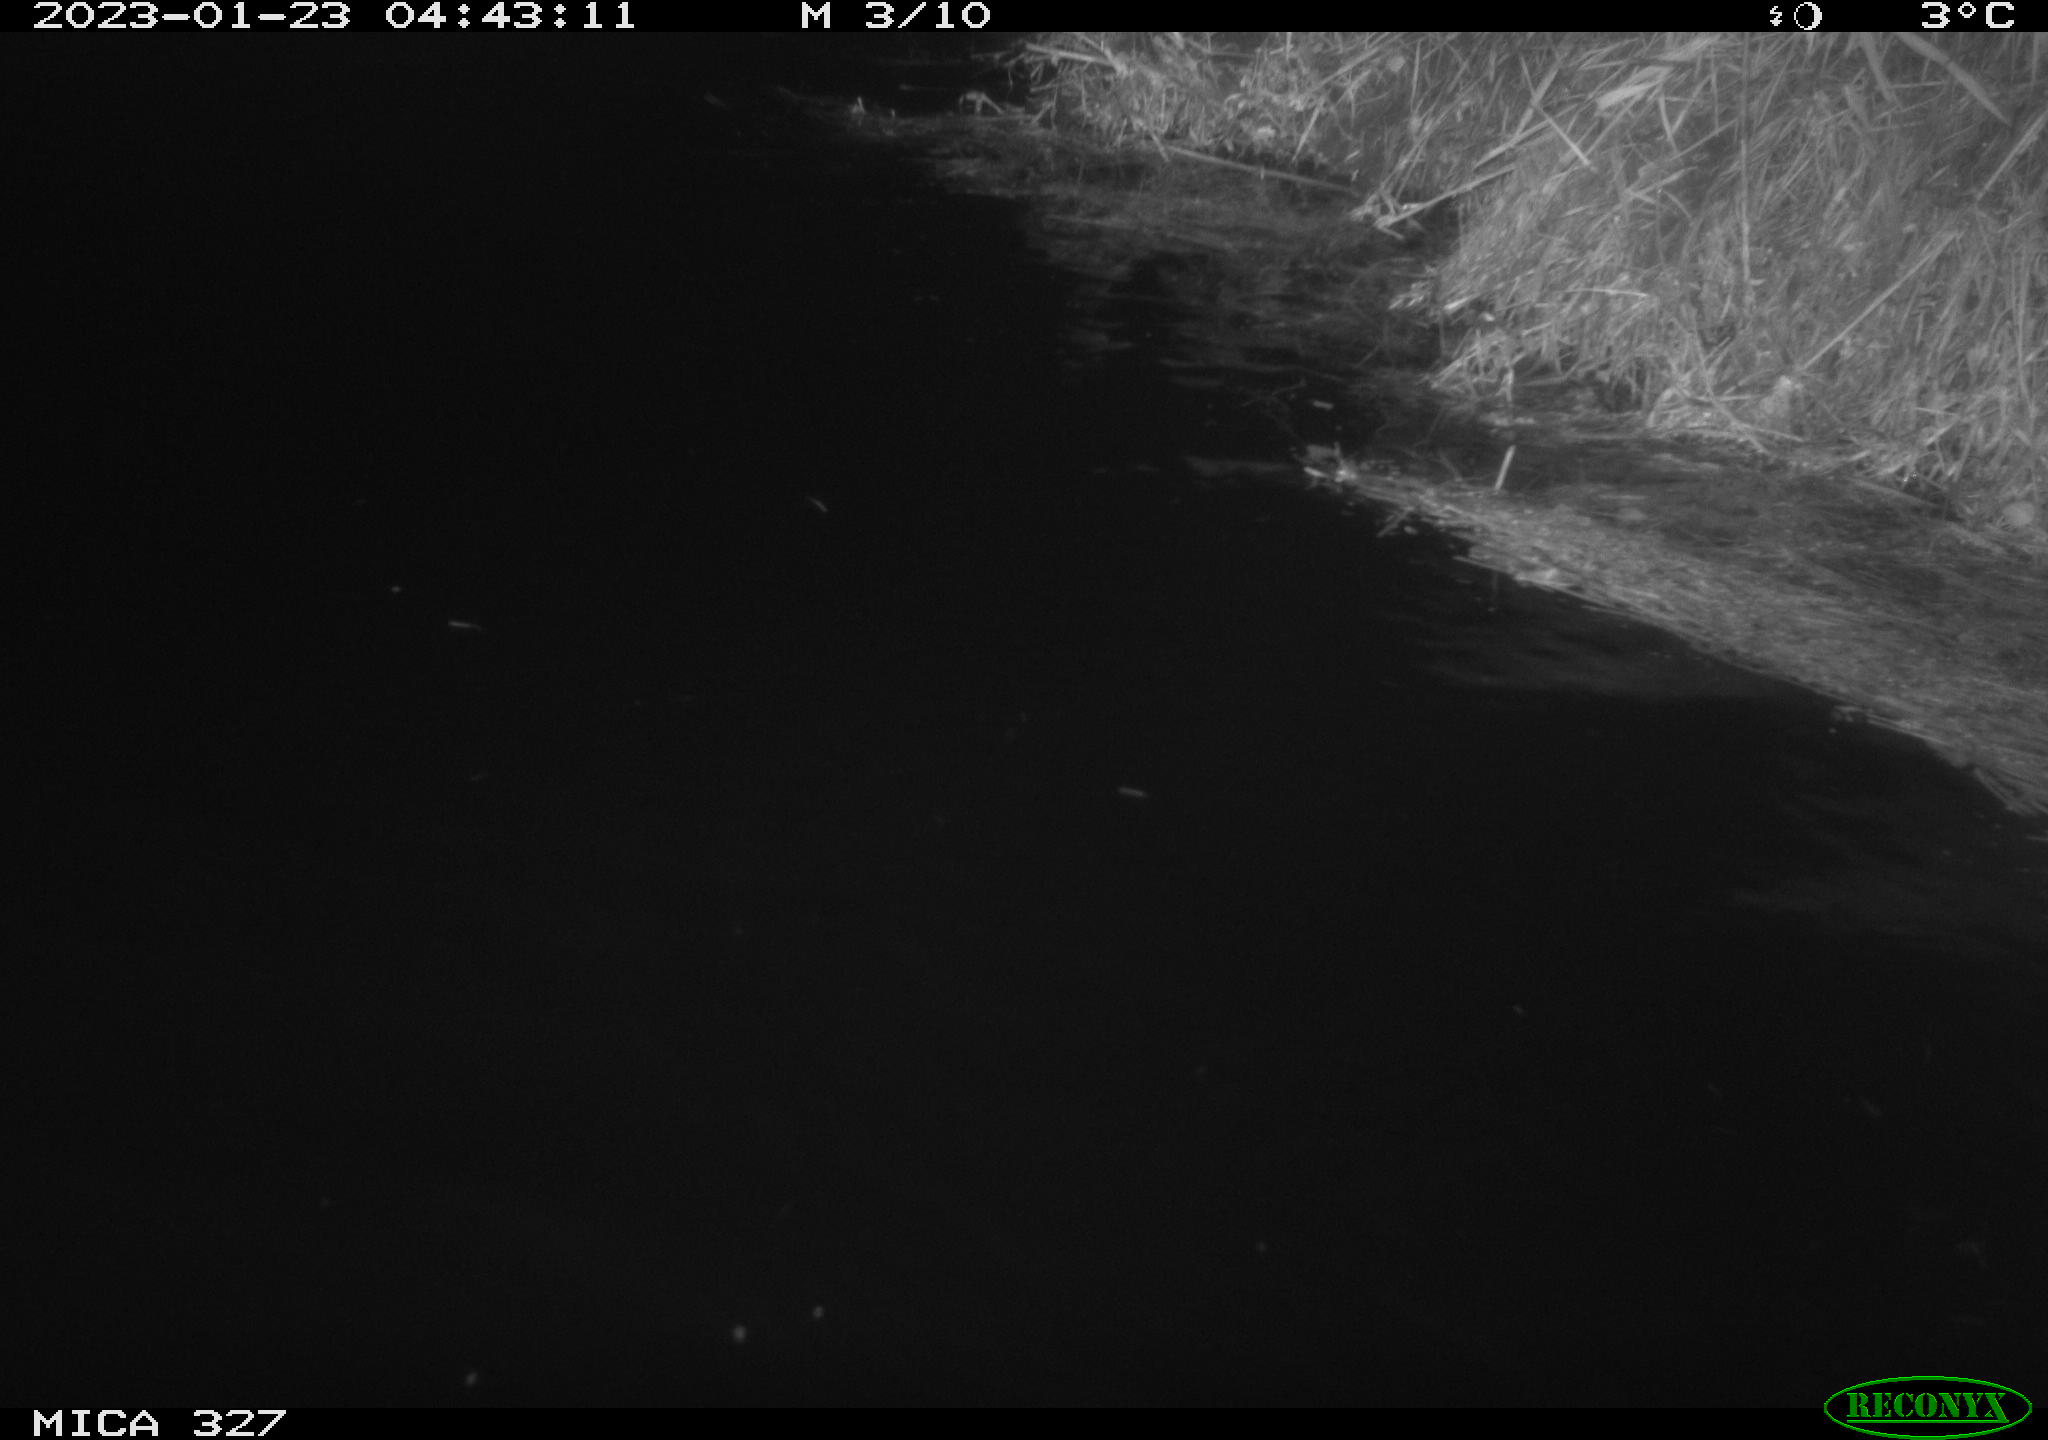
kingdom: Animalia
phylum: Chordata
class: Mammalia
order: Rodentia
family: Cricetidae
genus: Ondatra
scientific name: Ondatra zibethicus
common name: Muskrat
